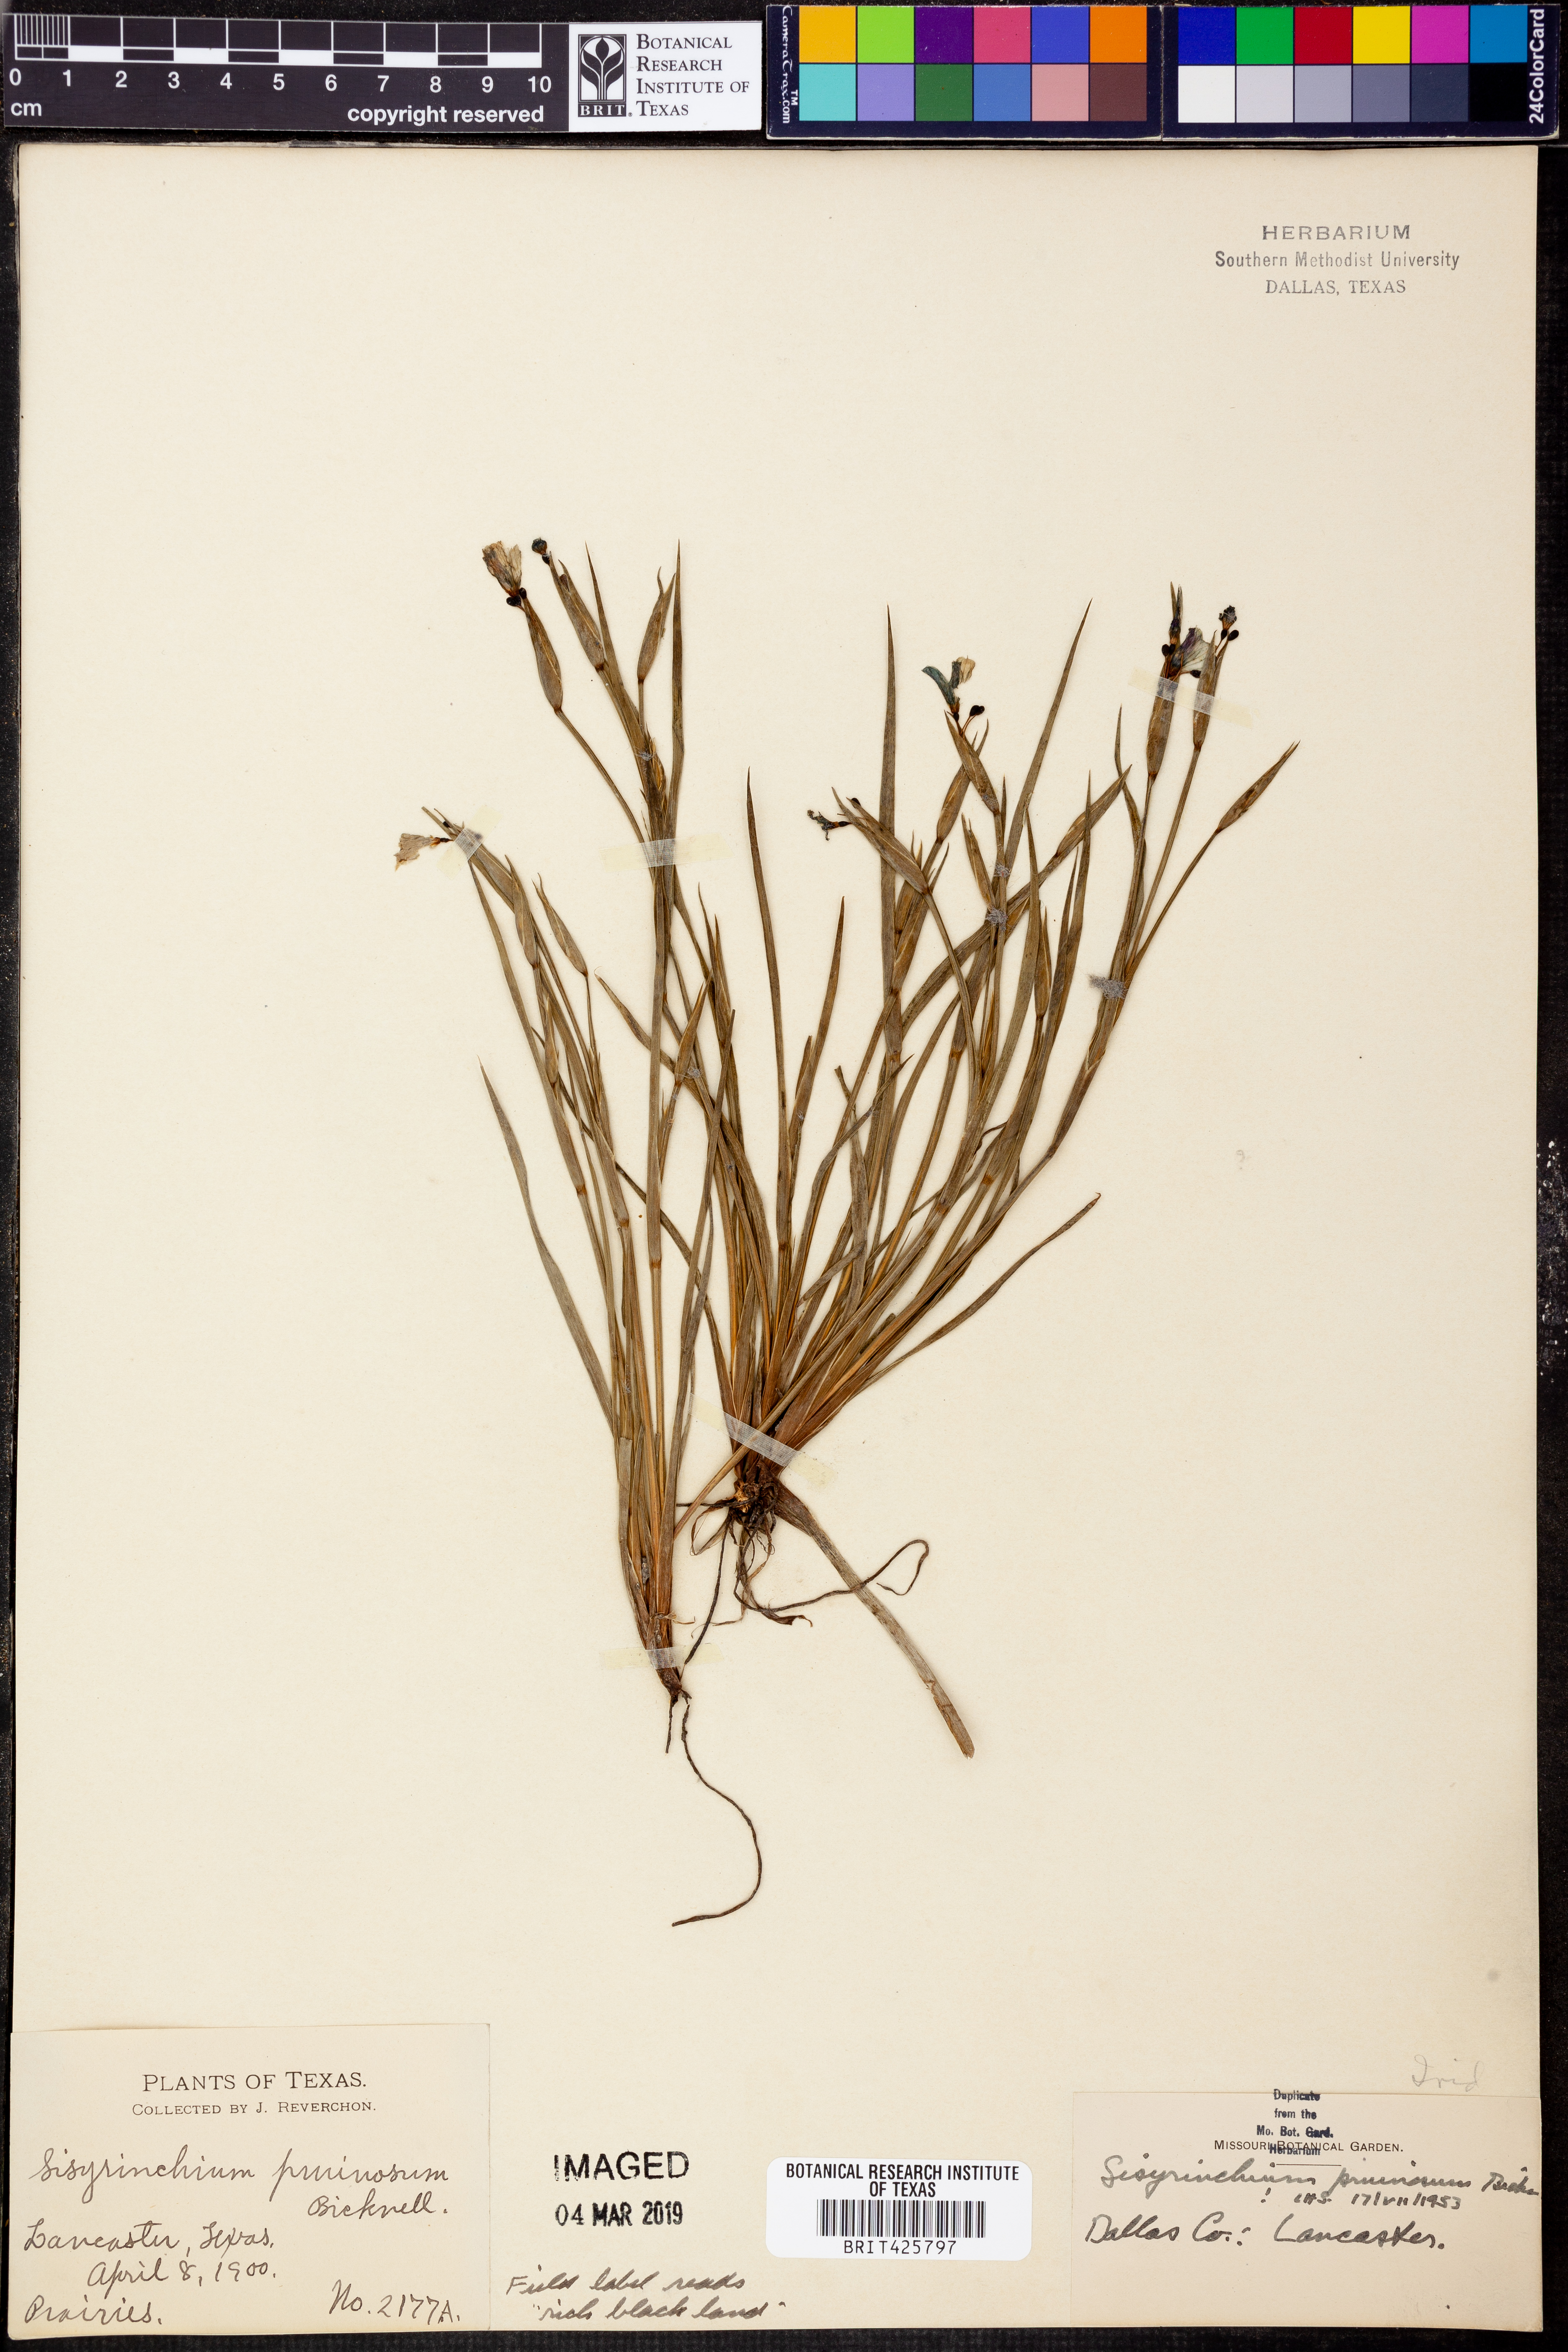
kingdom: Plantae
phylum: Tracheophyta
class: Liliopsida
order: Asparagales
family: Iridaceae
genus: Sisyrinchium
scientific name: Sisyrinchium pruinosum
